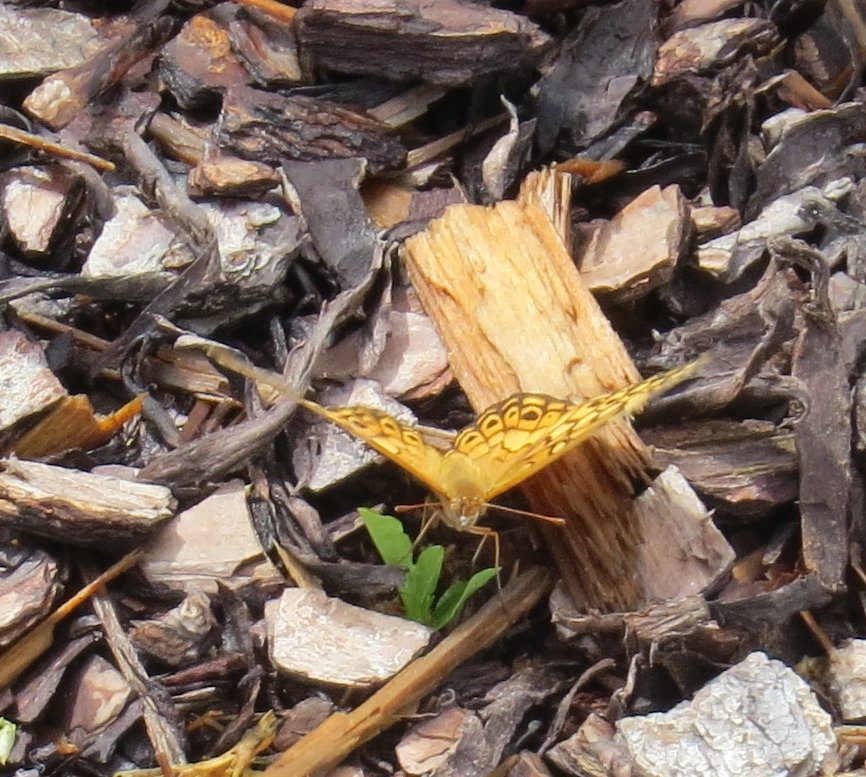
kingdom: Animalia
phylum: Arthropoda
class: Insecta
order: Lepidoptera
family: Nymphalidae
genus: Euptoieta
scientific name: Euptoieta claudia
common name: Variegated Fritillary
